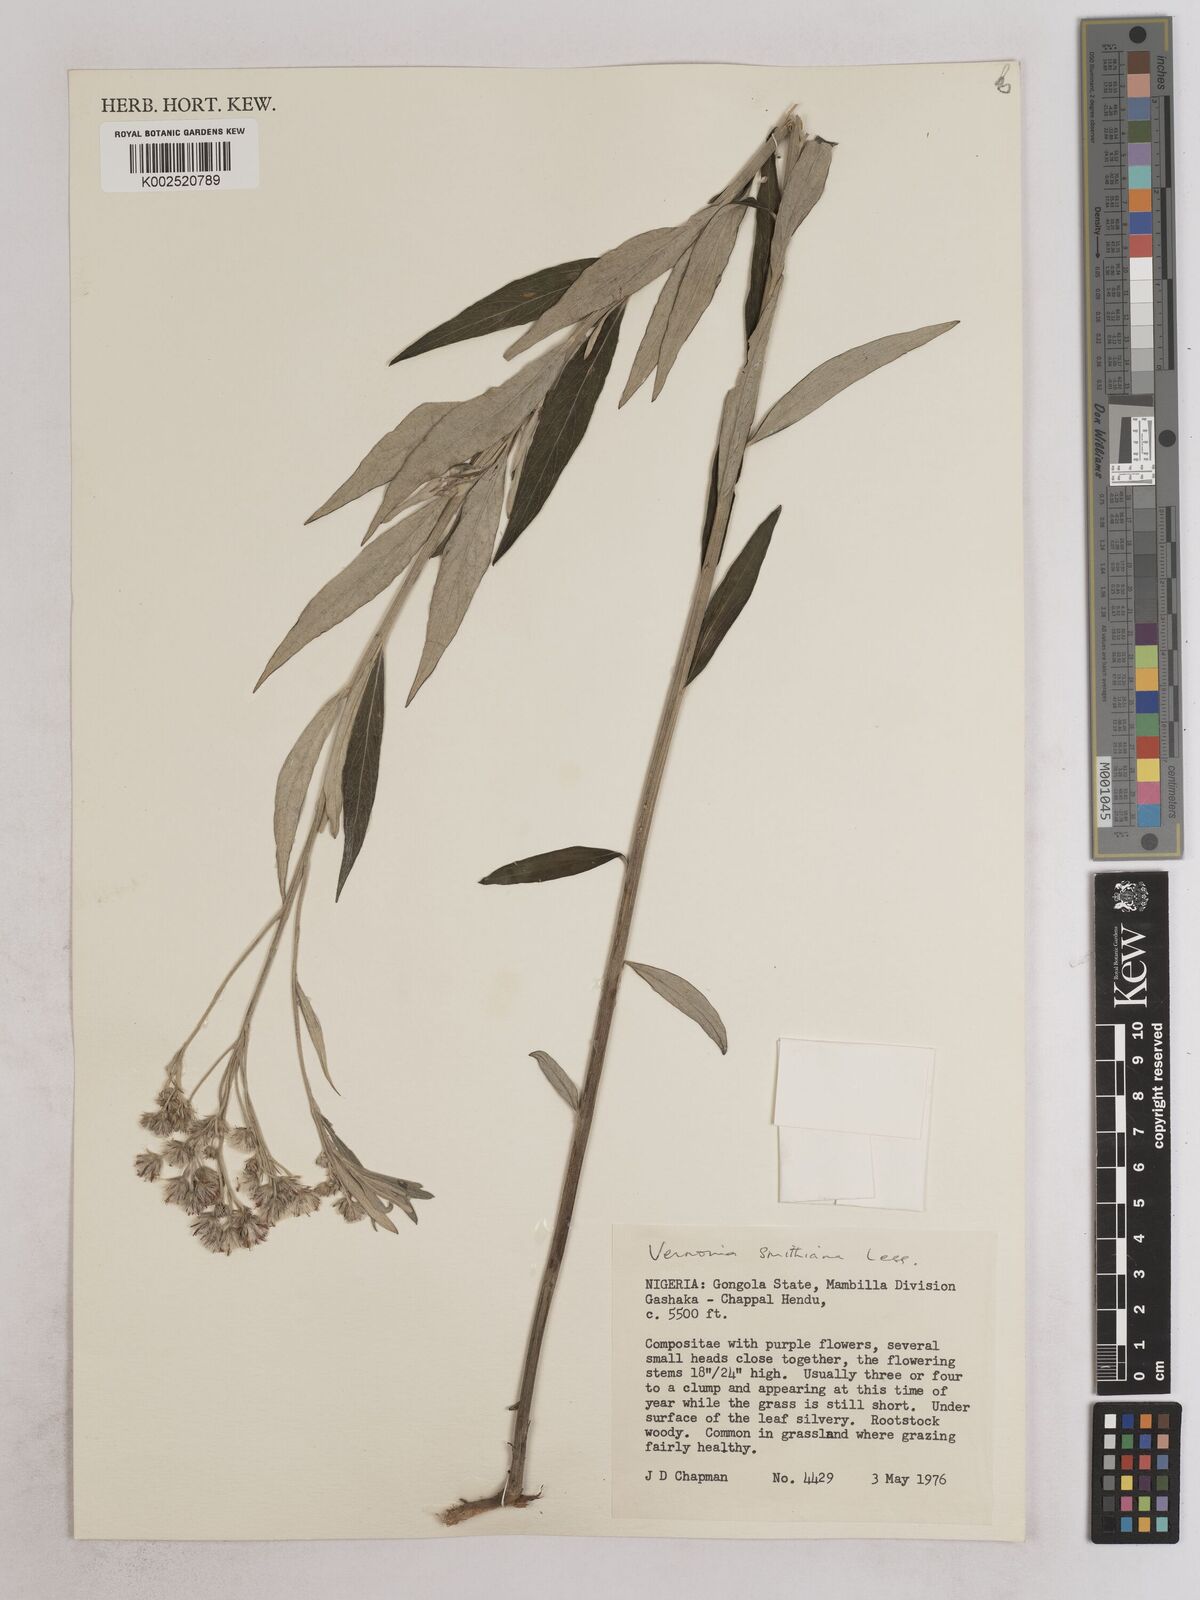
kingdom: Plantae
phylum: Tracheophyta
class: Magnoliopsida
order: Asterales
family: Asteraceae
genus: Hilliardiella
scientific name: Hilliardiella smithiana
